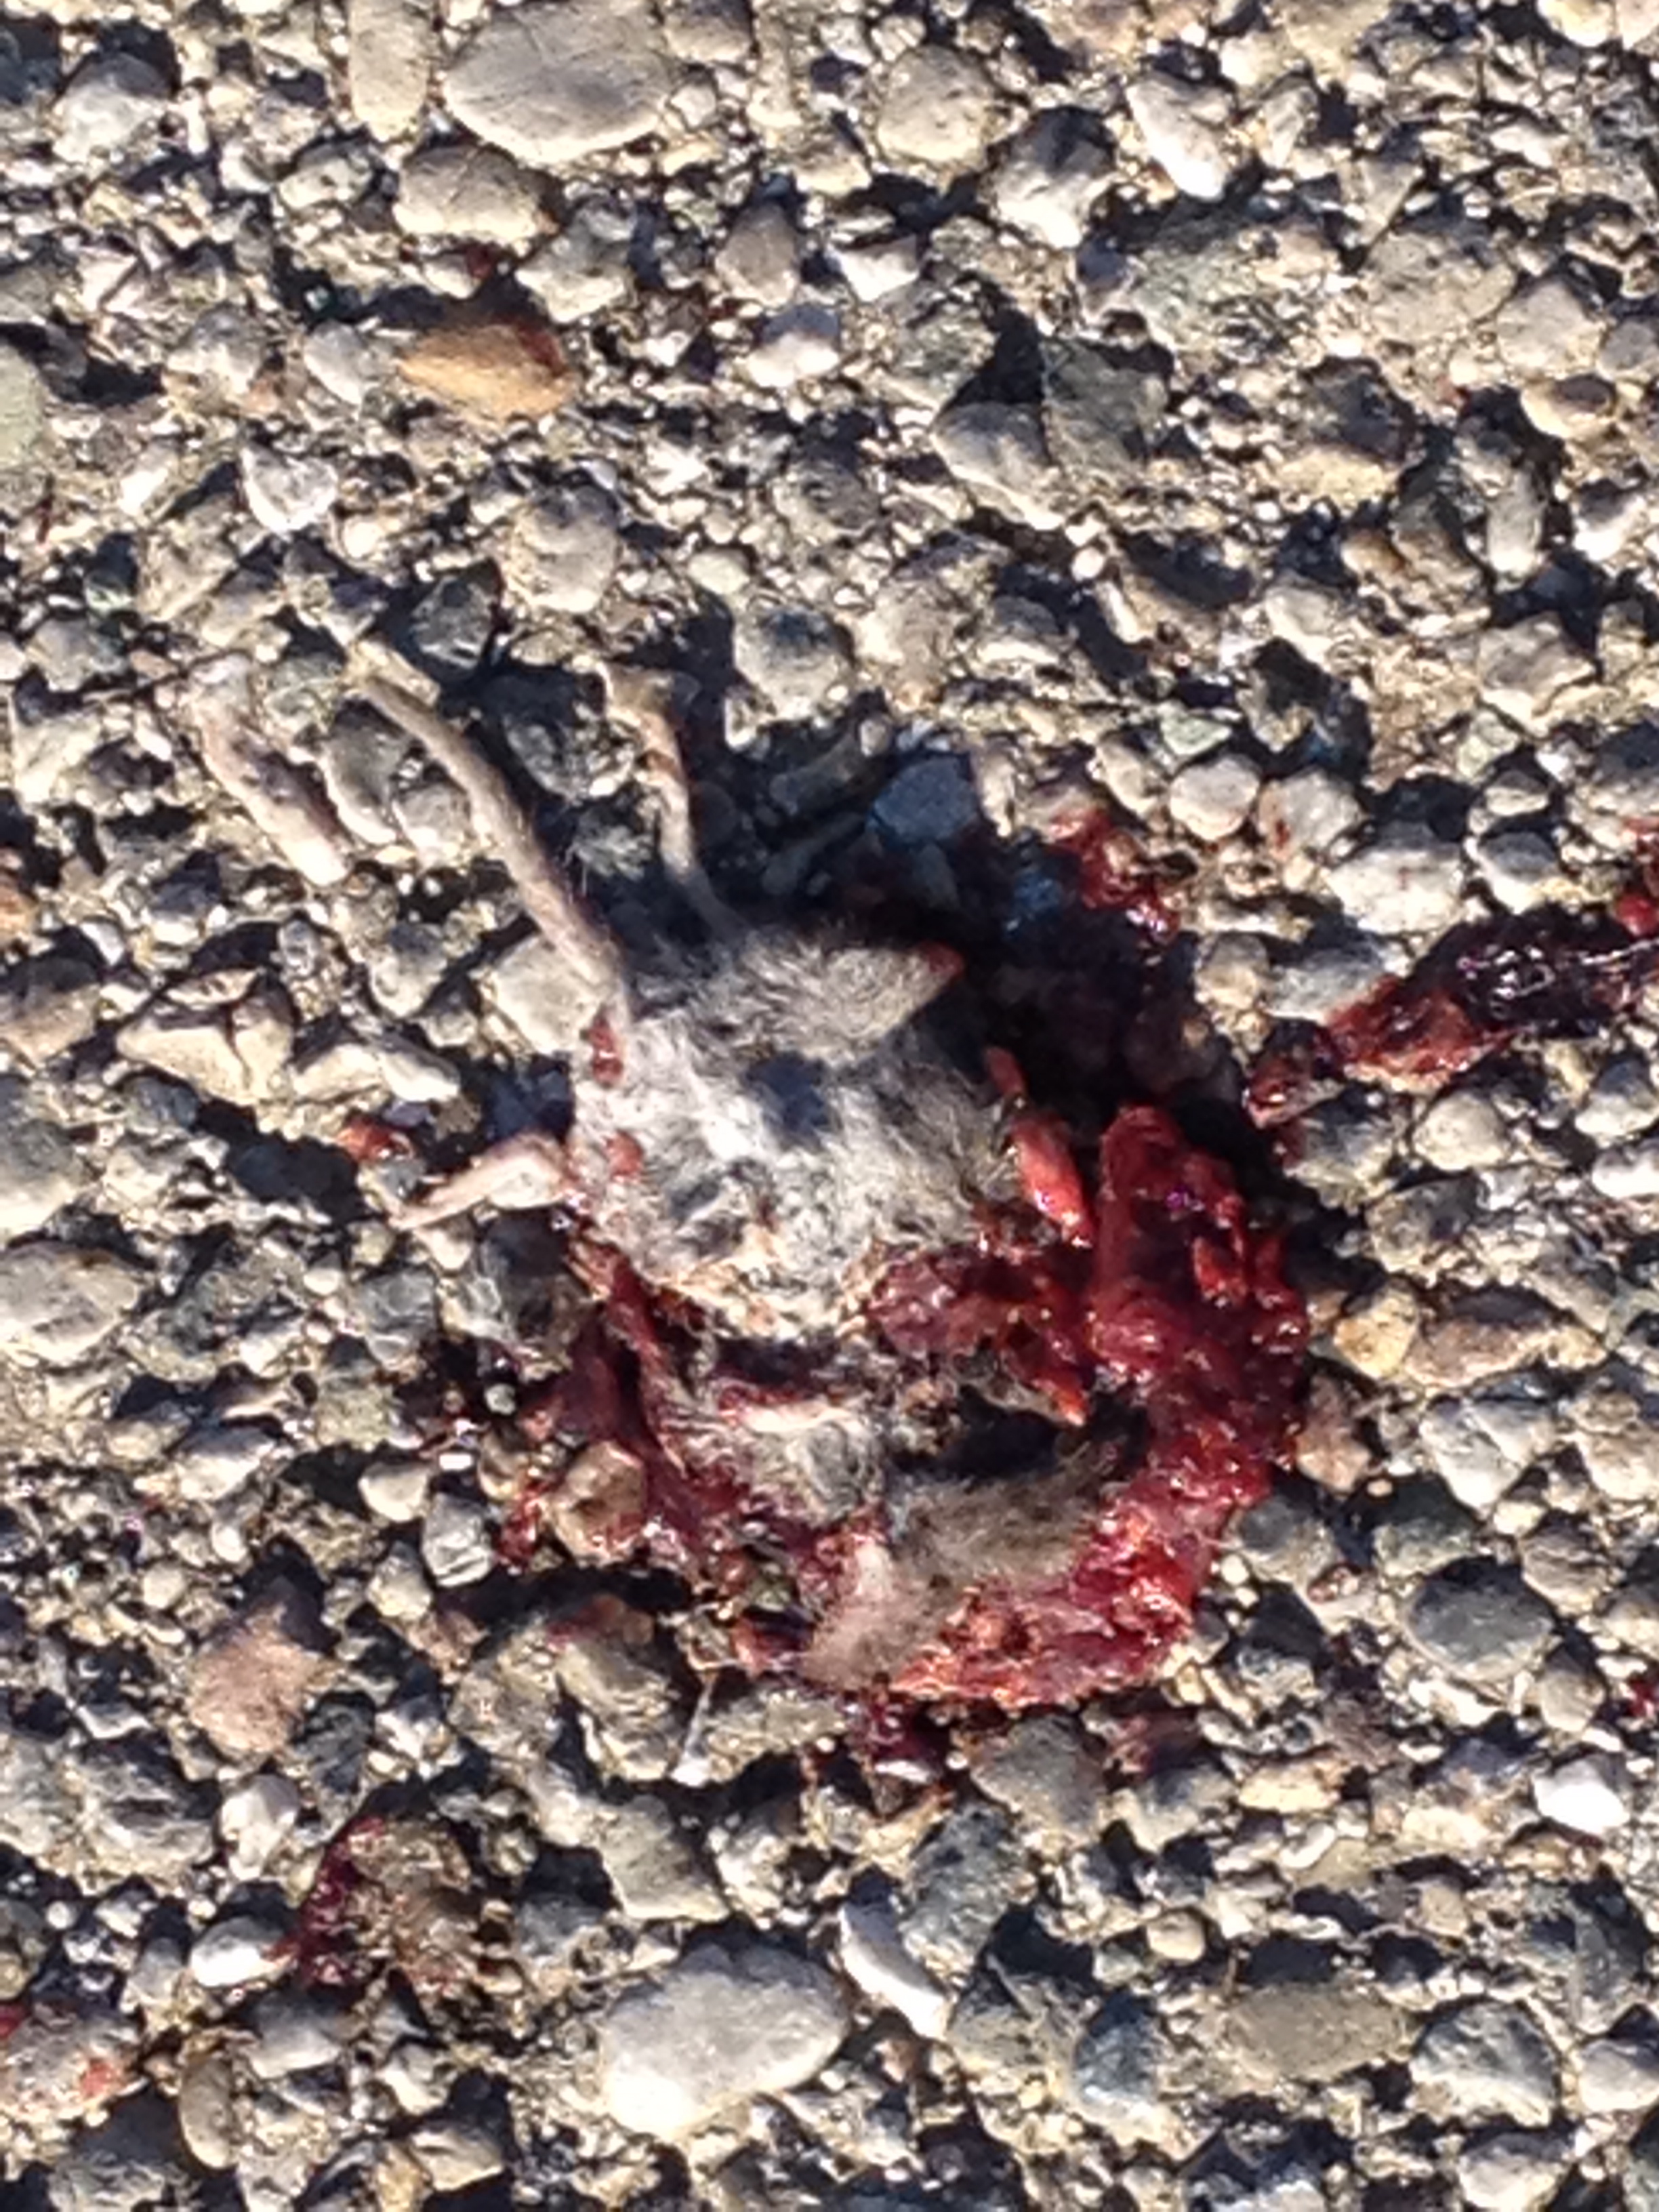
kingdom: Animalia
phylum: Chordata
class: Mammalia
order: Soricomorpha
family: Soricidae
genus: Crocidura
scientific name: Crocidura
